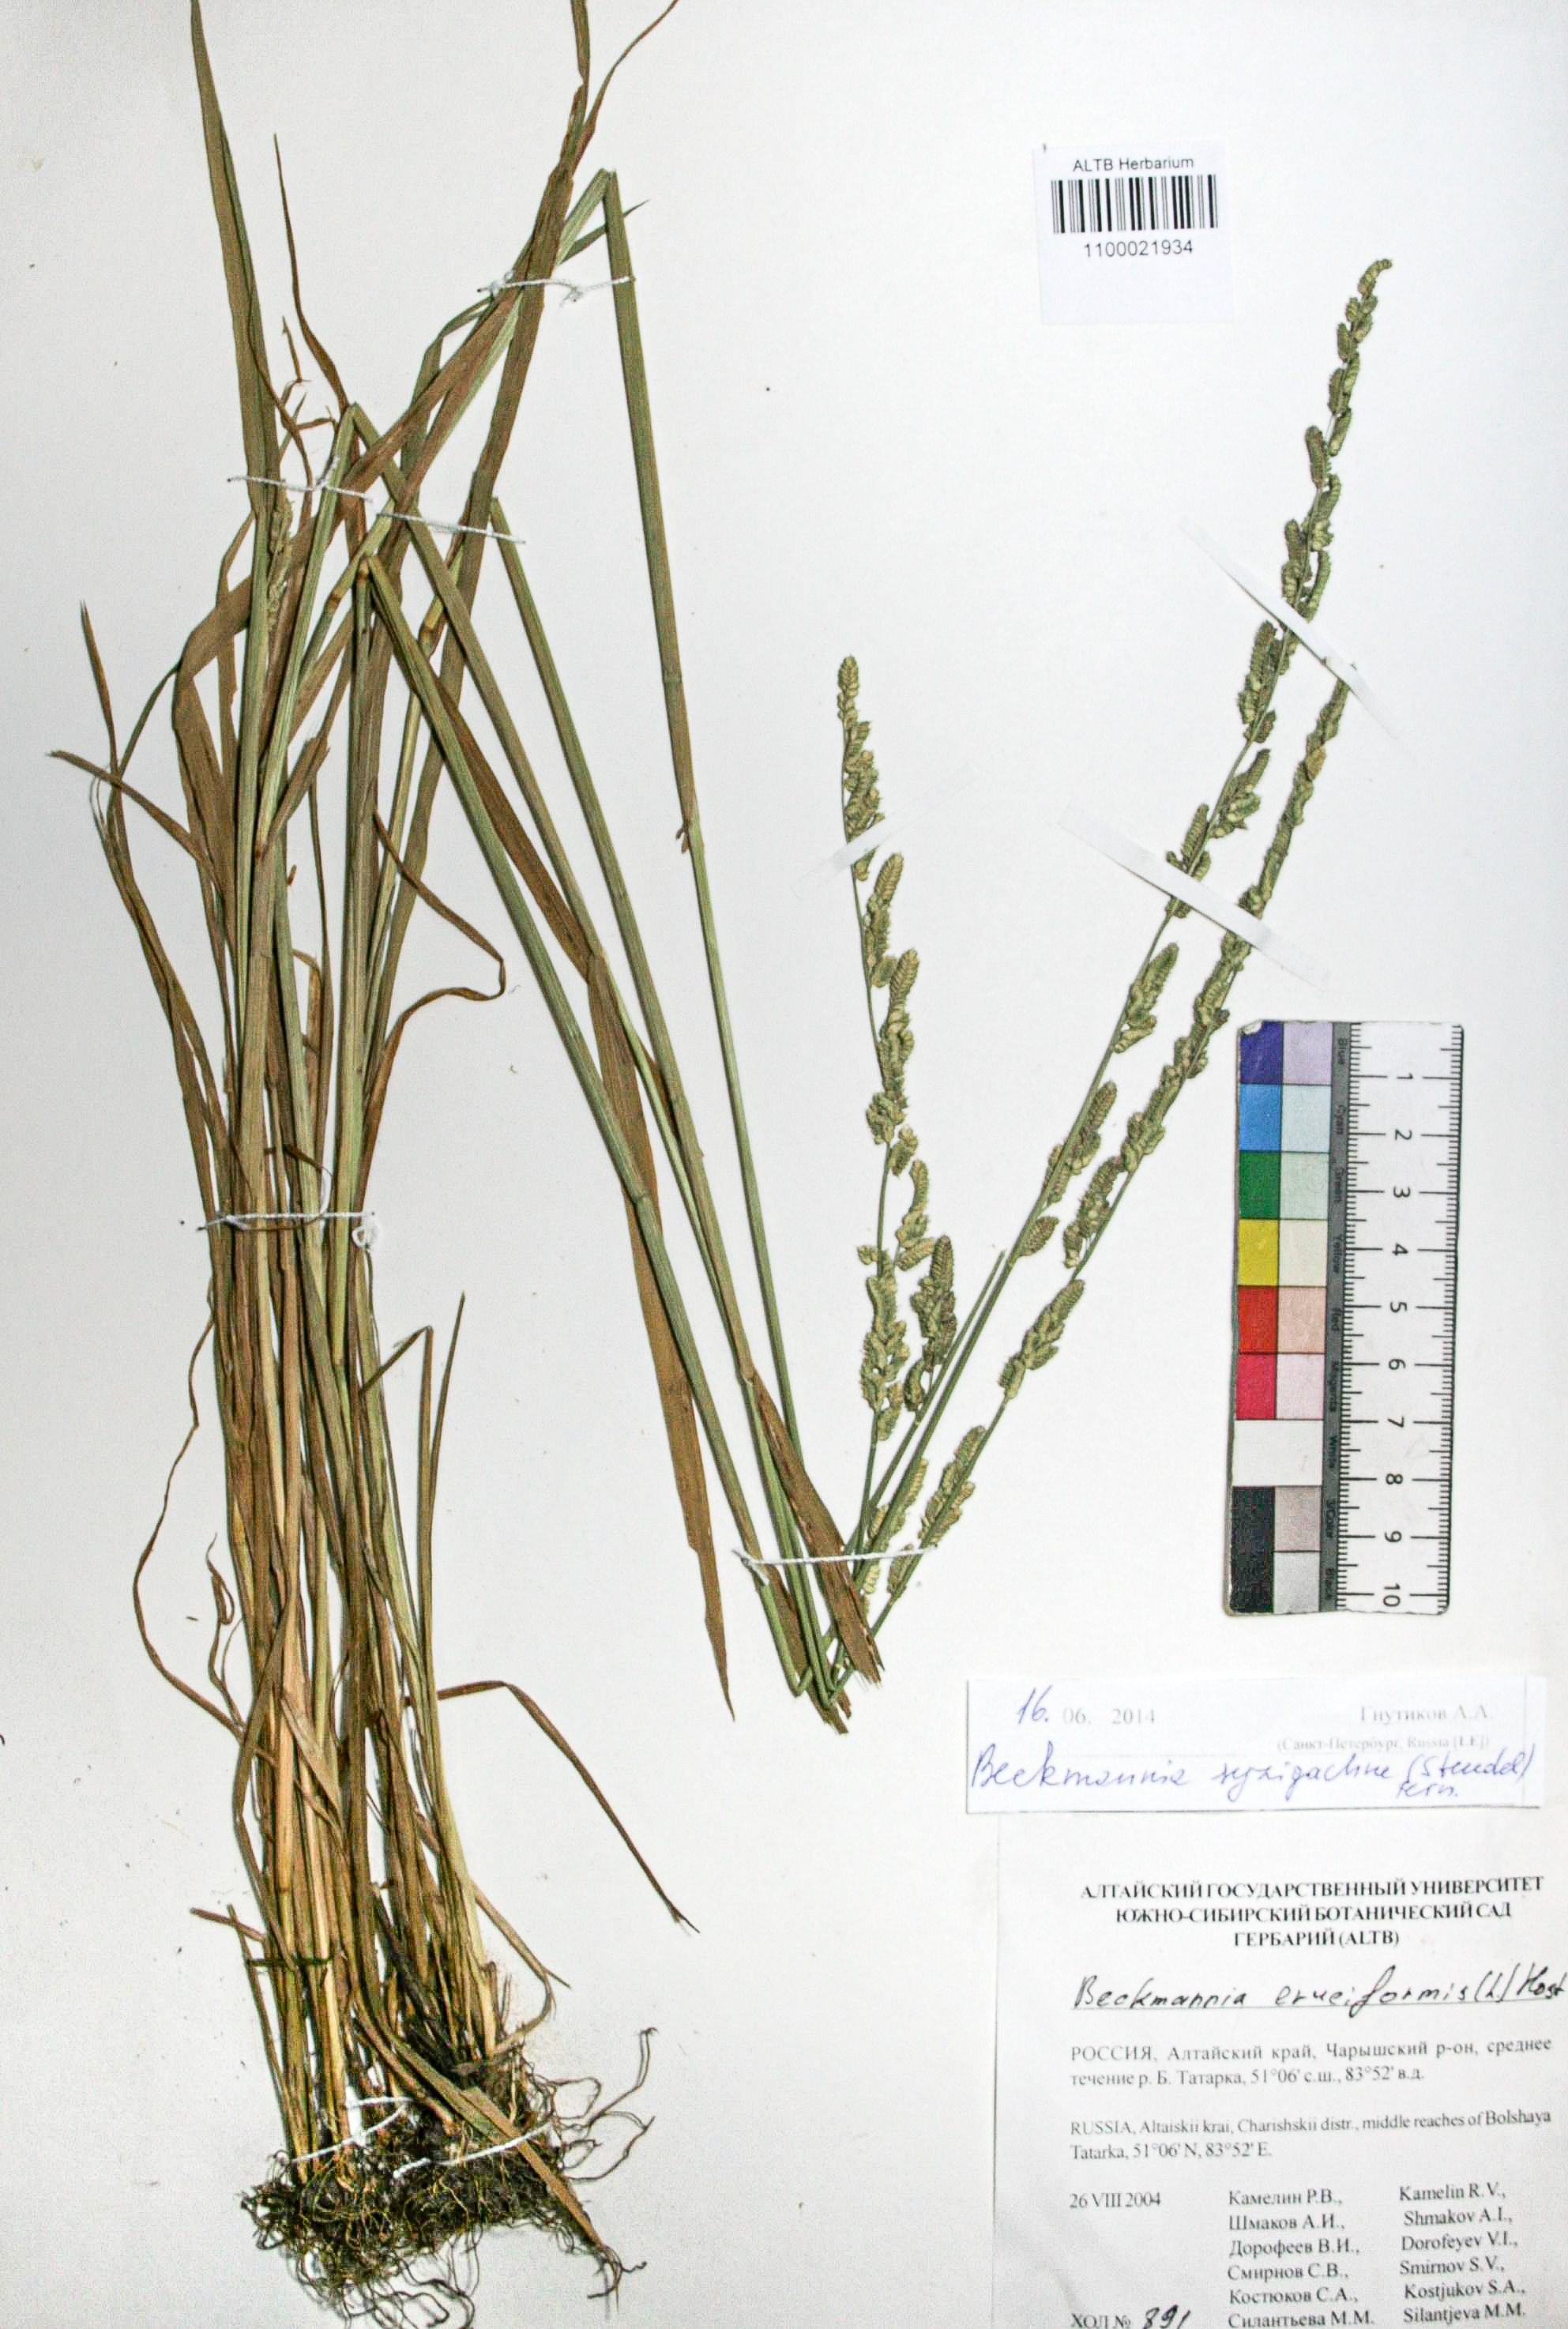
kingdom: Plantae
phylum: Tracheophyta
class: Liliopsida
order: Poales
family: Poaceae
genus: Beckmannia
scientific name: Beckmannia syzigachne
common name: American slough-grass
